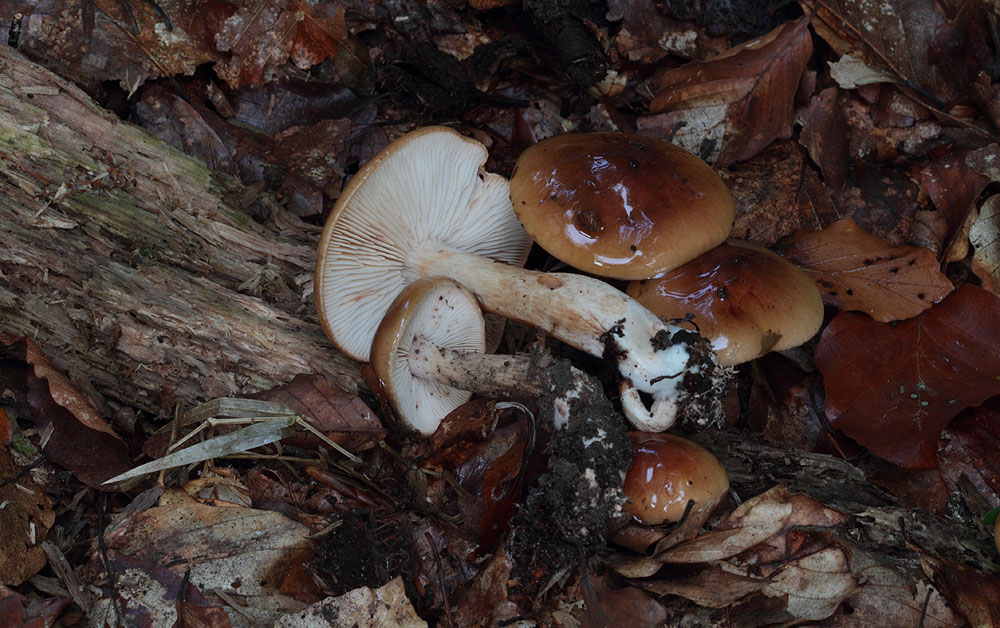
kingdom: Fungi
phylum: Basidiomycota
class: Agaricomycetes
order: Agaricales
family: Tricholomataceae
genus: Tricholoma
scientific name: Tricholoma ustale
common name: sveden ridderhat
